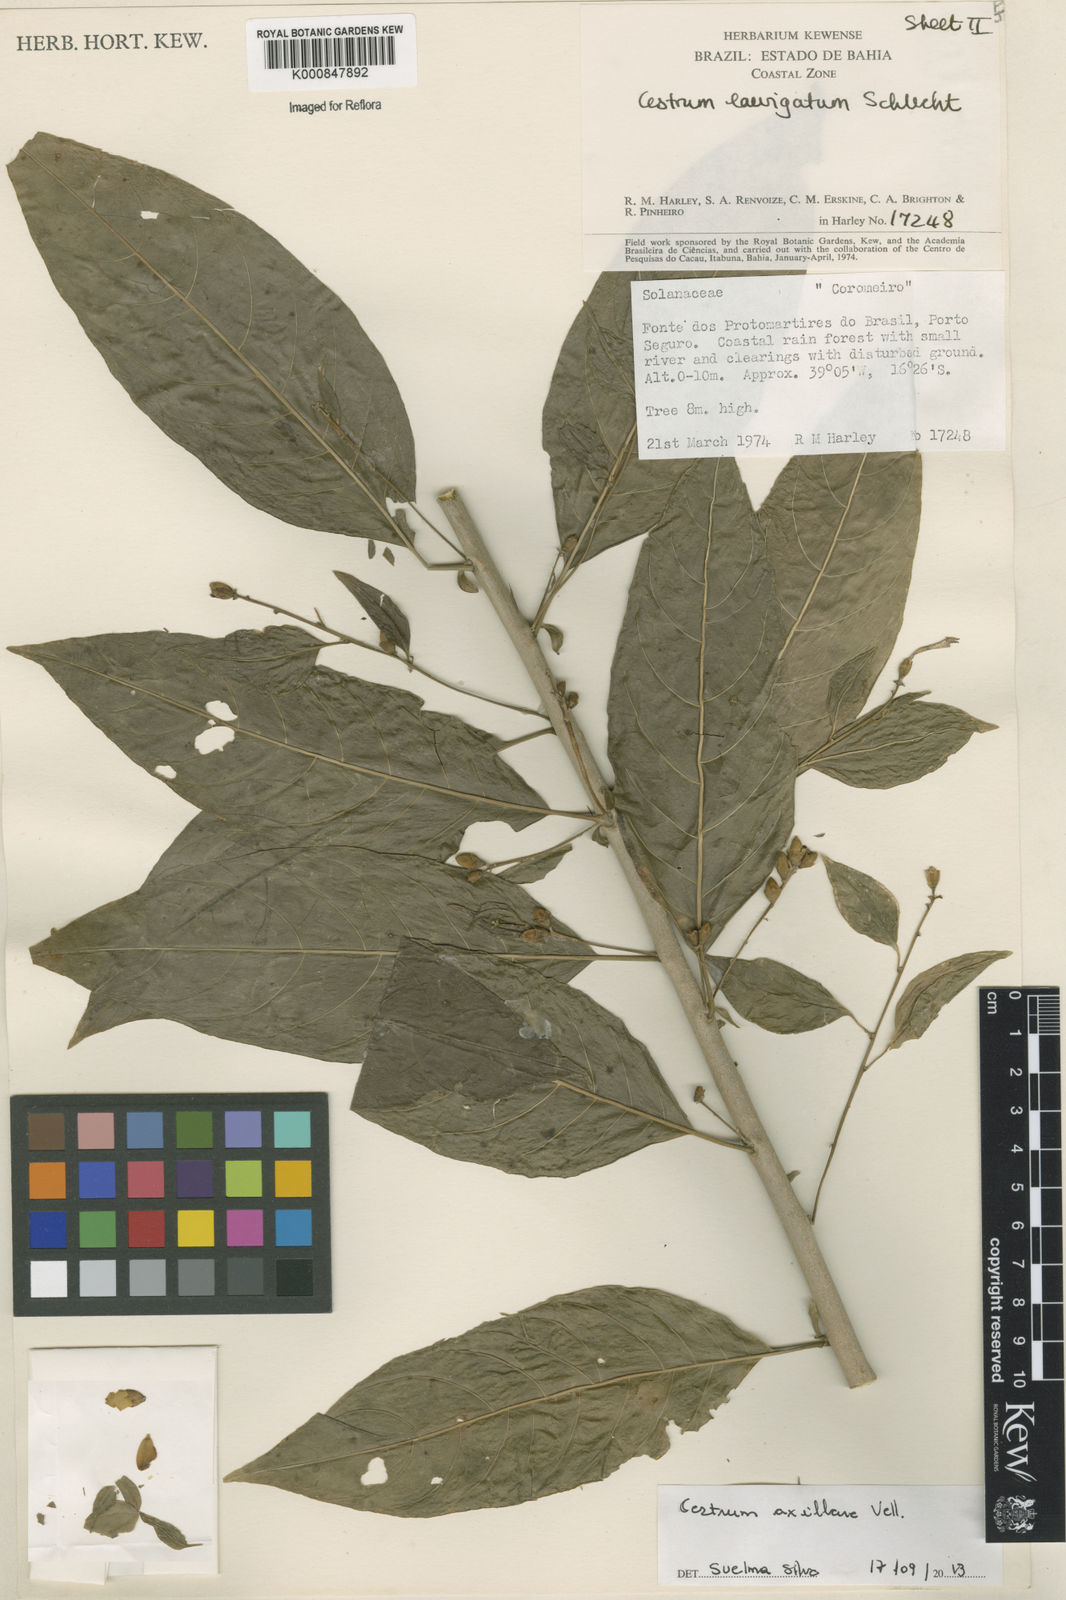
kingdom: Plantae
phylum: Tracheophyta
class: Magnoliopsida
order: Solanales
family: Solanaceae
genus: Cestrum
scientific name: Cestrum laevigatum
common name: Inkberry
